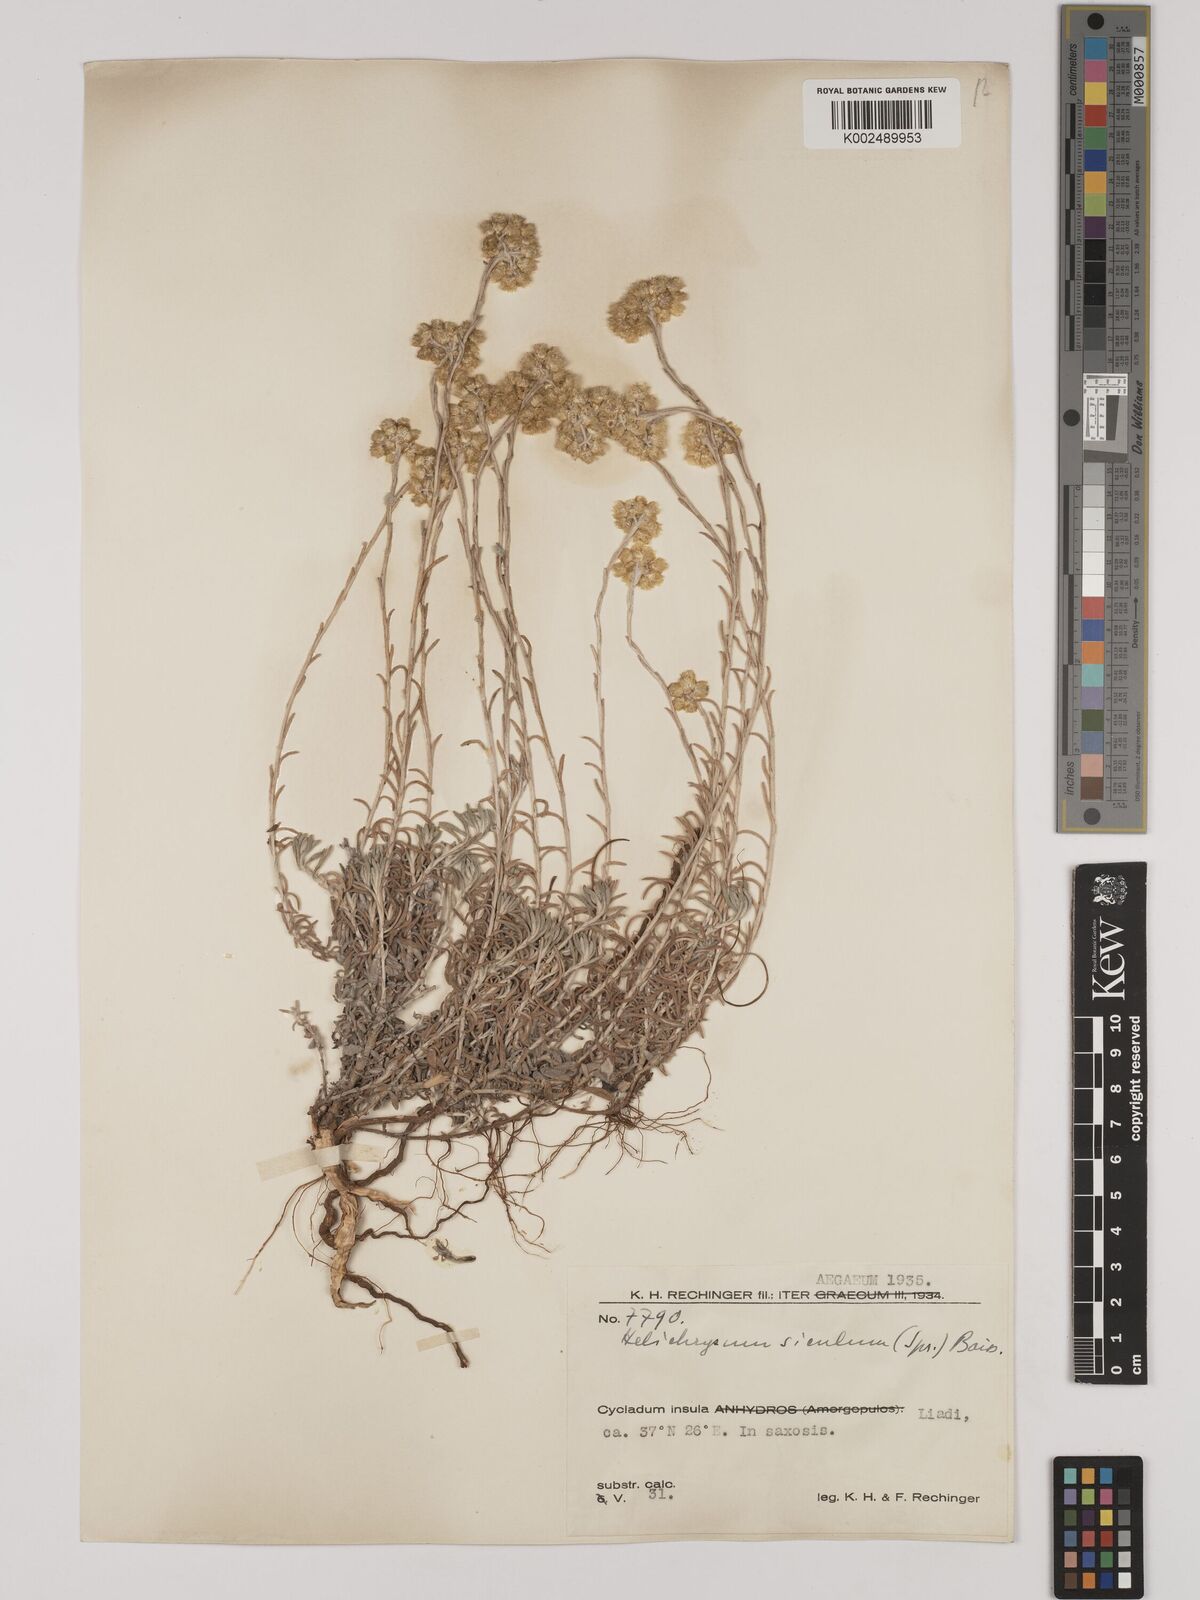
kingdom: Plantae
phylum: Tracheophyta
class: Magnoliopsida
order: Asterales
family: Asteraceae
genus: Helichrysum
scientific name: Helichrysum italicum
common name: Curryplant
